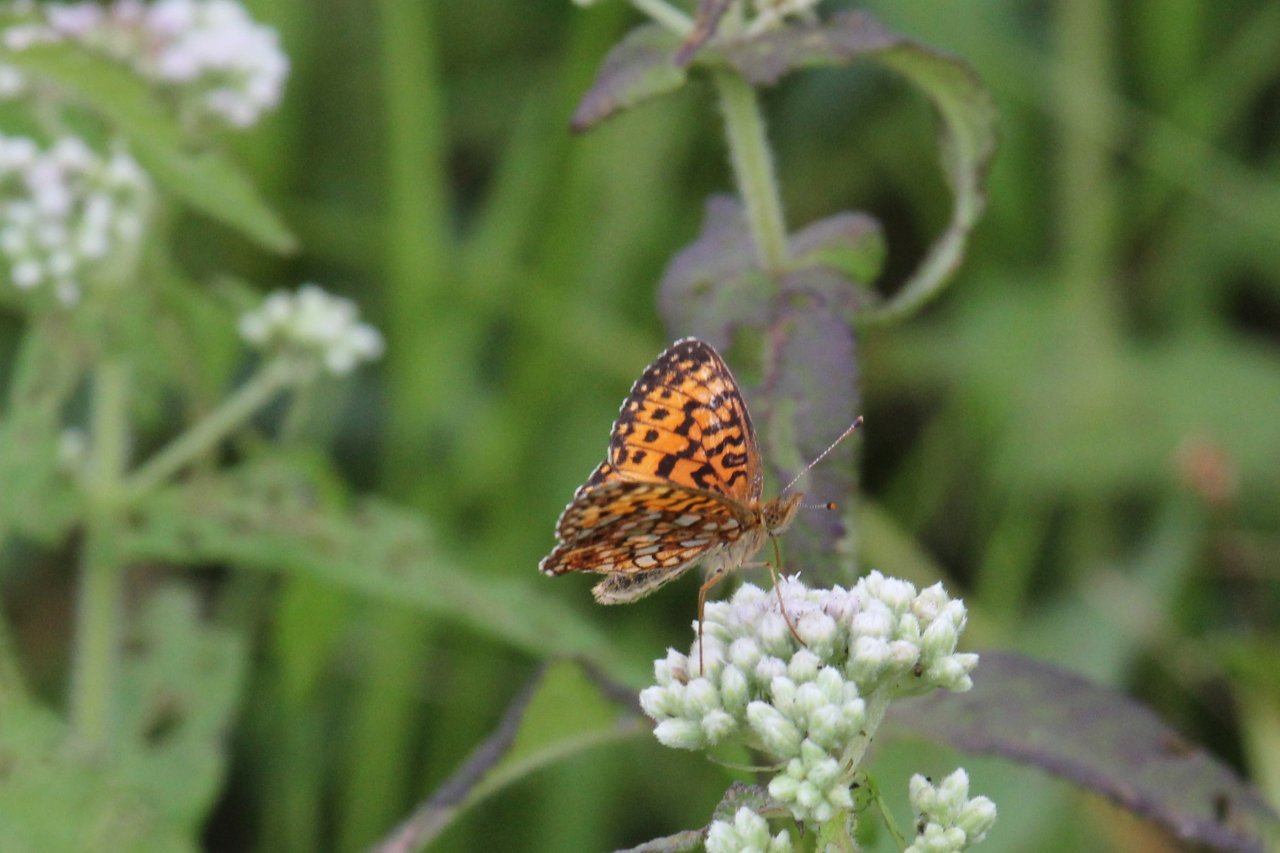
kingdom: Animalia
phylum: Arthropoda
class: Insecta
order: Lepidoptera
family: Nymphalidae
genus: Speyeria
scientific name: Speyeria atlantis
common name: Atlantis Fritillary
